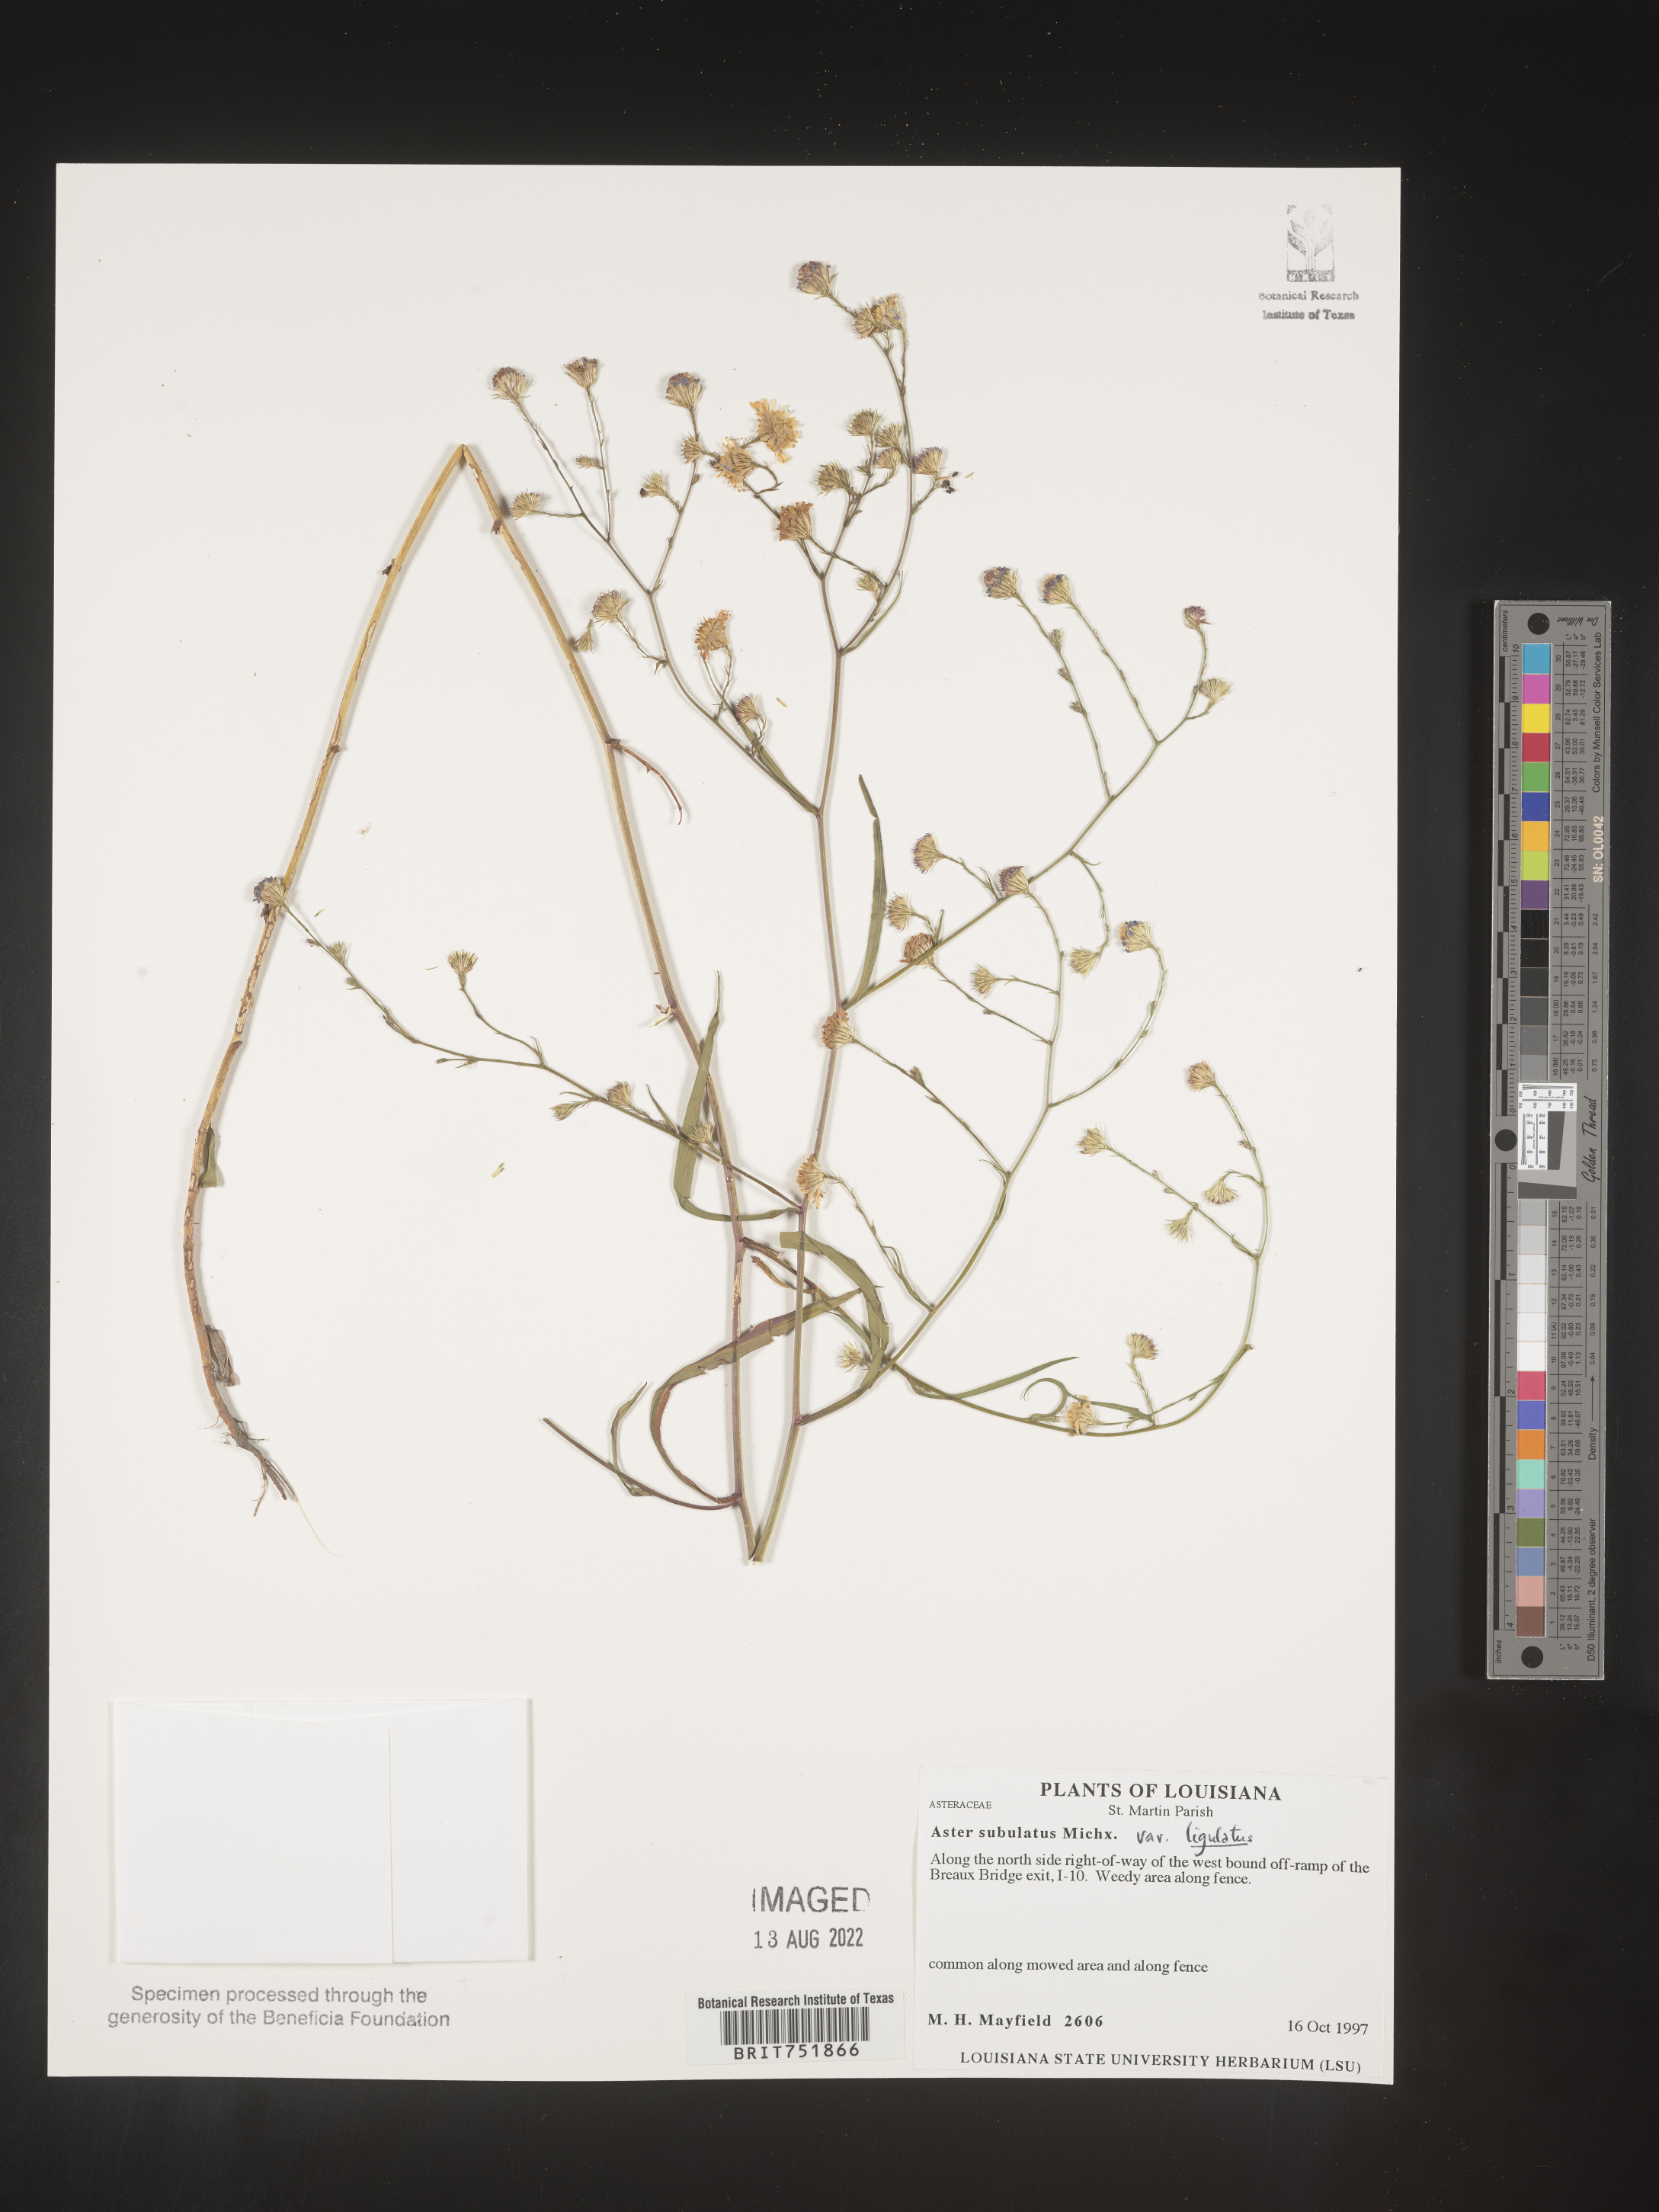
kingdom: Plantae
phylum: Tracheophyta
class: Magnoliopsida
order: Asterales
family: Asteraceae
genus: Symphyotrichum
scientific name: Symphyotrichum divaricatum
